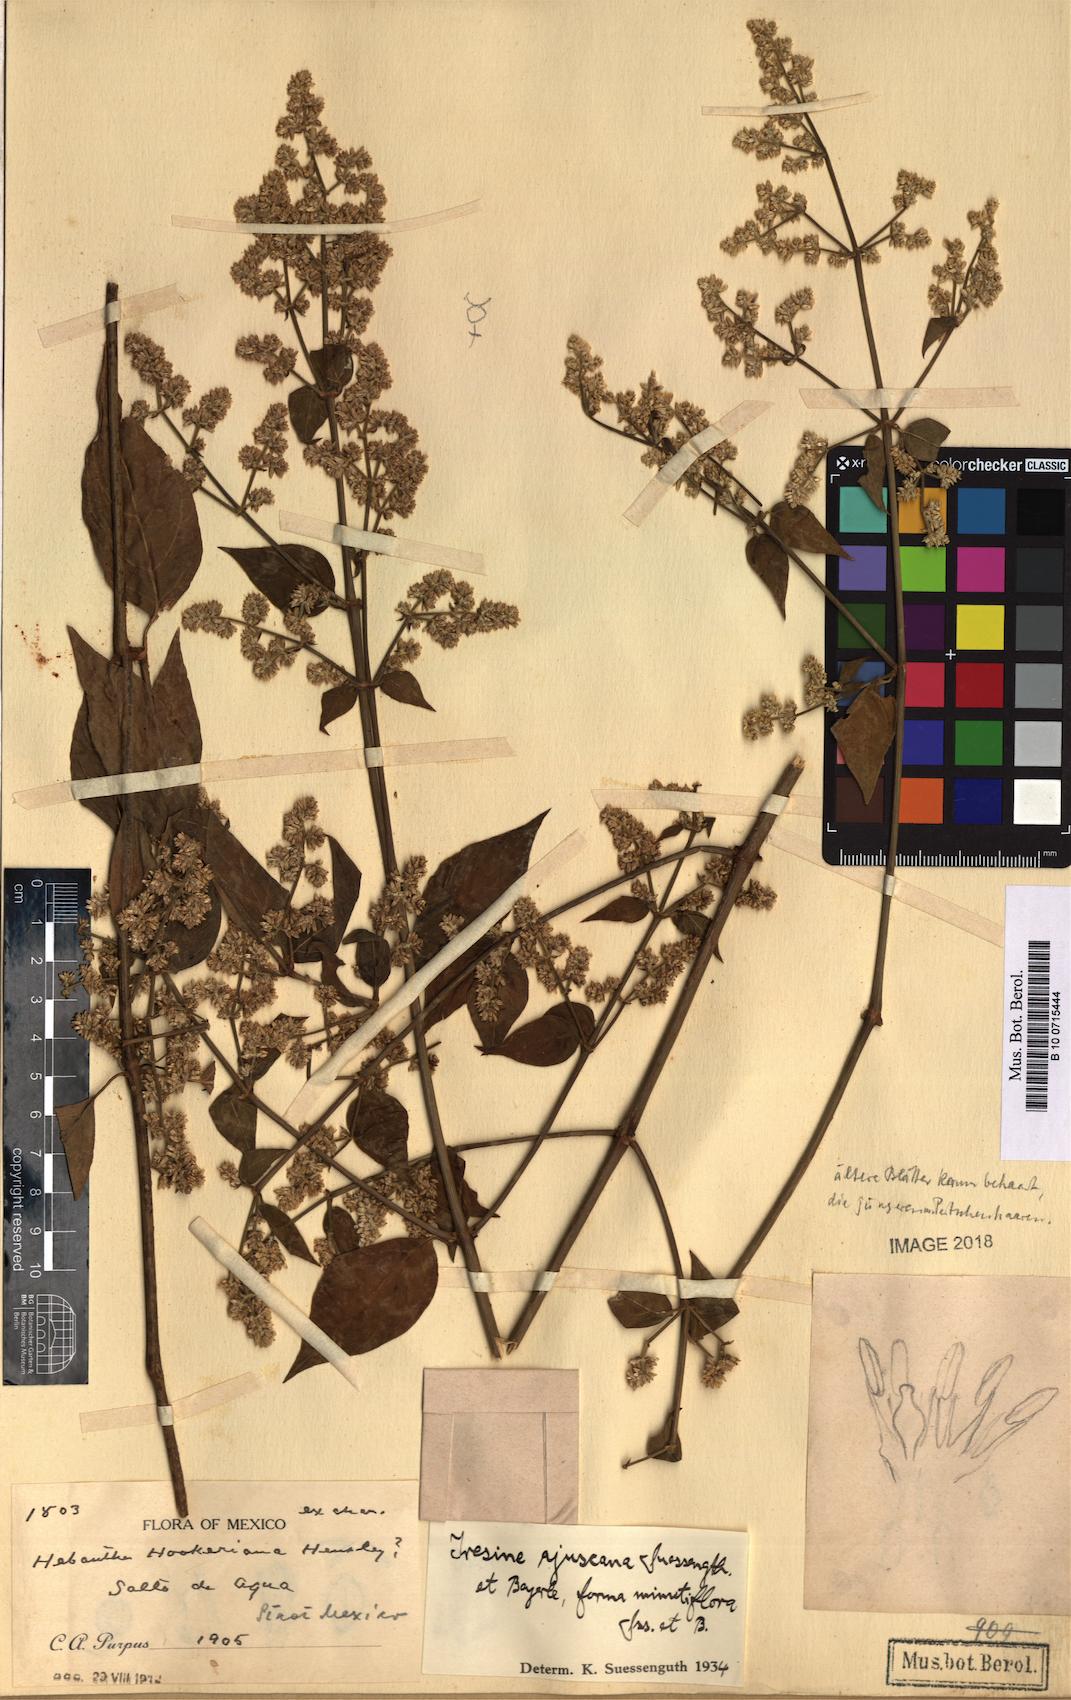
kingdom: Plantae
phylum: Tracheophyta
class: Magnoliopsida
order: Caryophyllales
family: Amaranthaceae
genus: Iresine
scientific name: Iresine ajuscana
